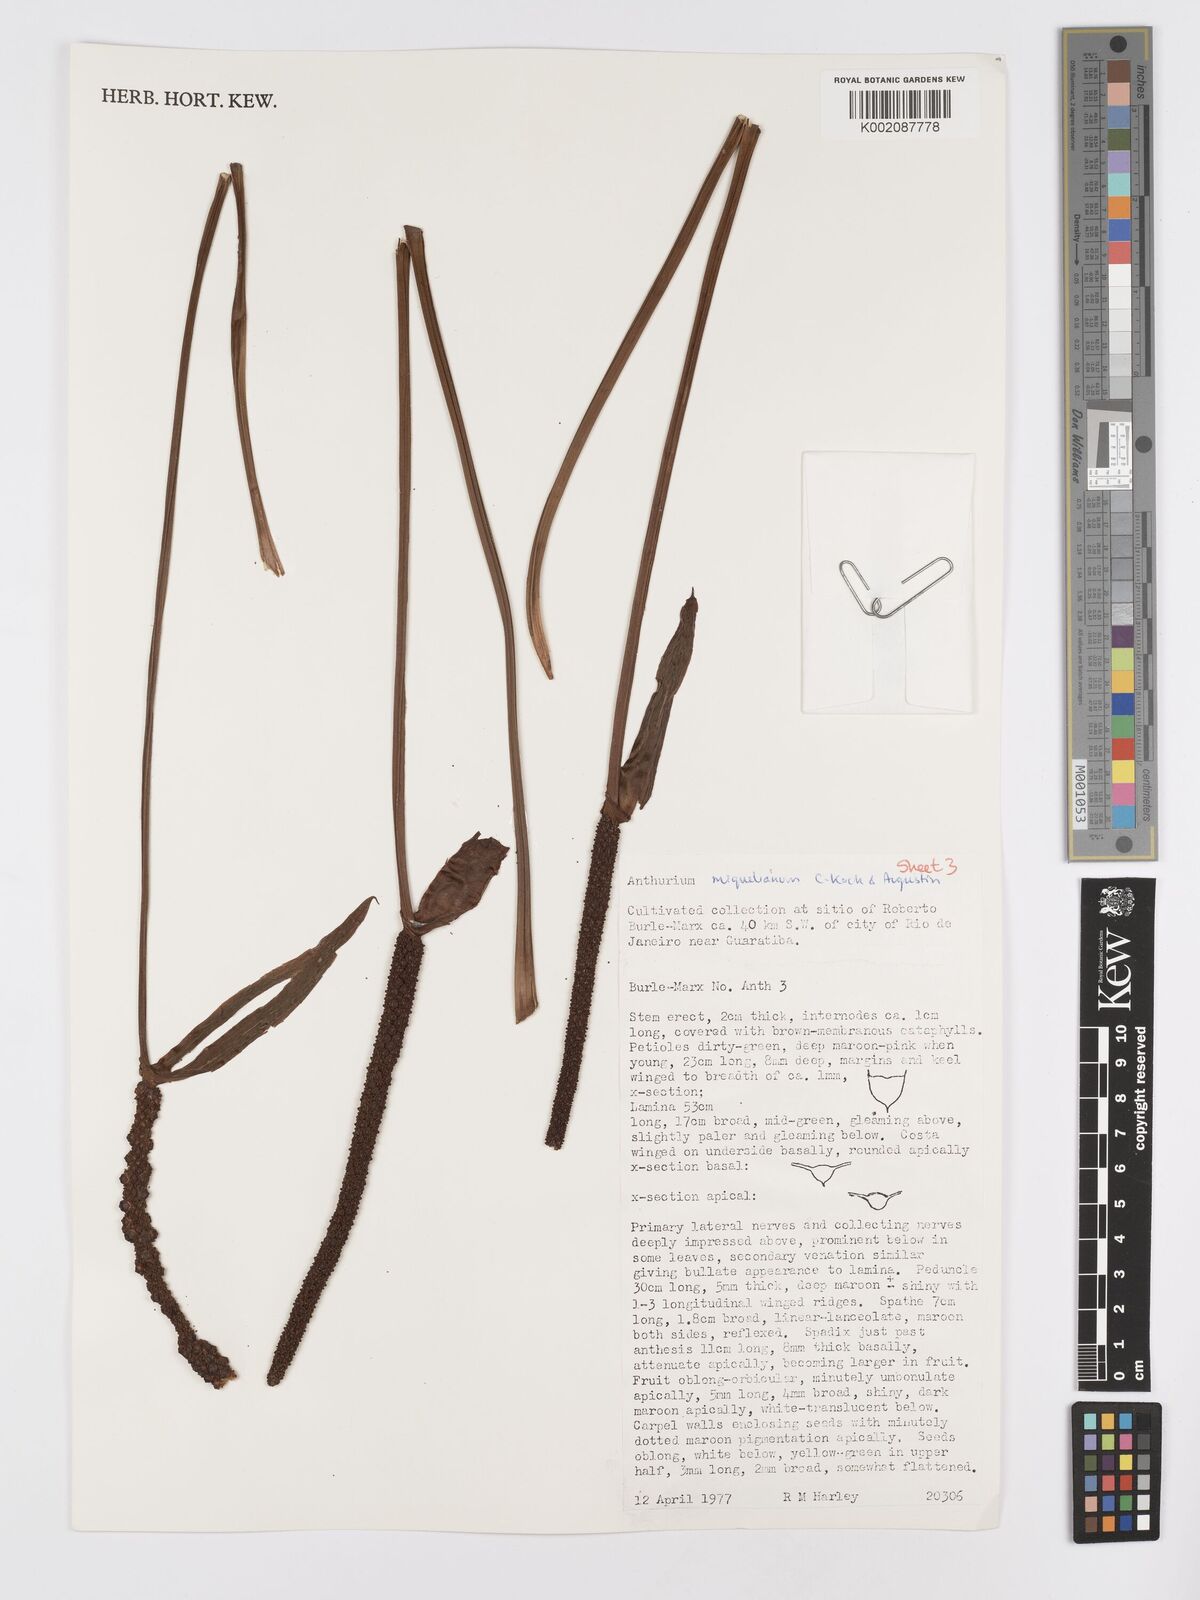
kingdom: Plantae
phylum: Tracheophyta
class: Liliopsida
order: Alismatales
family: Araceae
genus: Anthurium
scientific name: Anthurium parasiticum
